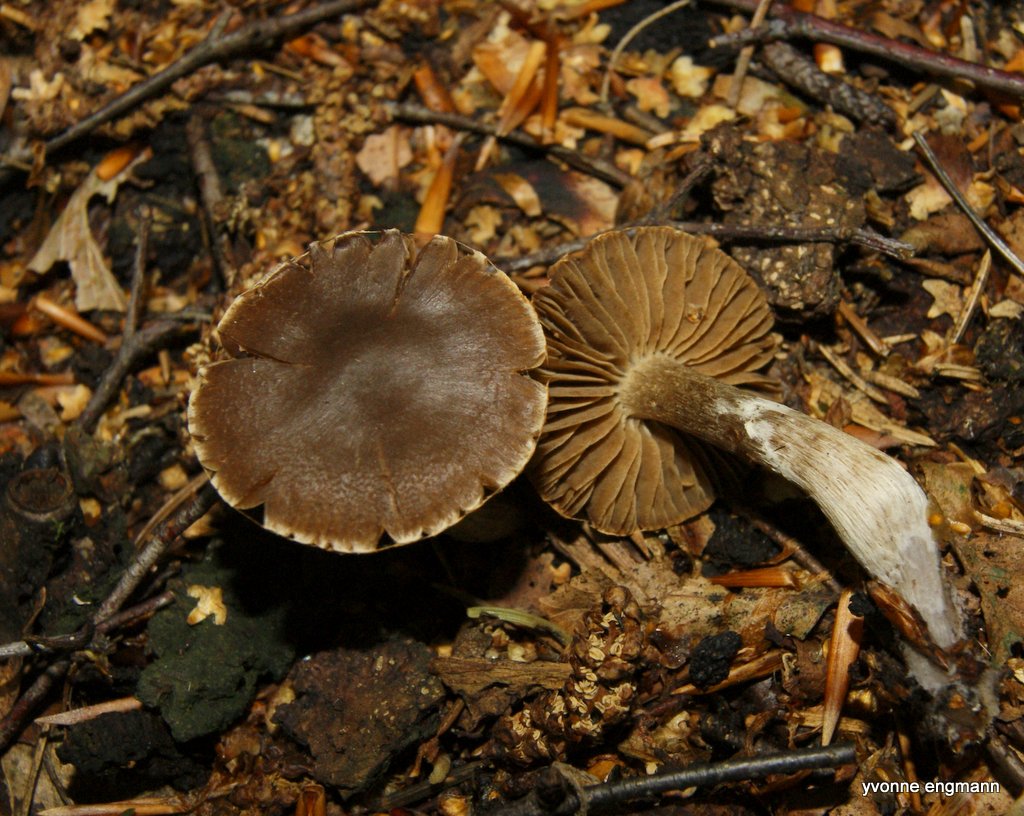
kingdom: Fungi
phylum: Basidiomycota
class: Agaricomycetes
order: Agaricales
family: Cortinariaceae
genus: Cortinarius
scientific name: Cortinarius decipiens
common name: mørkpuklet slørhat
